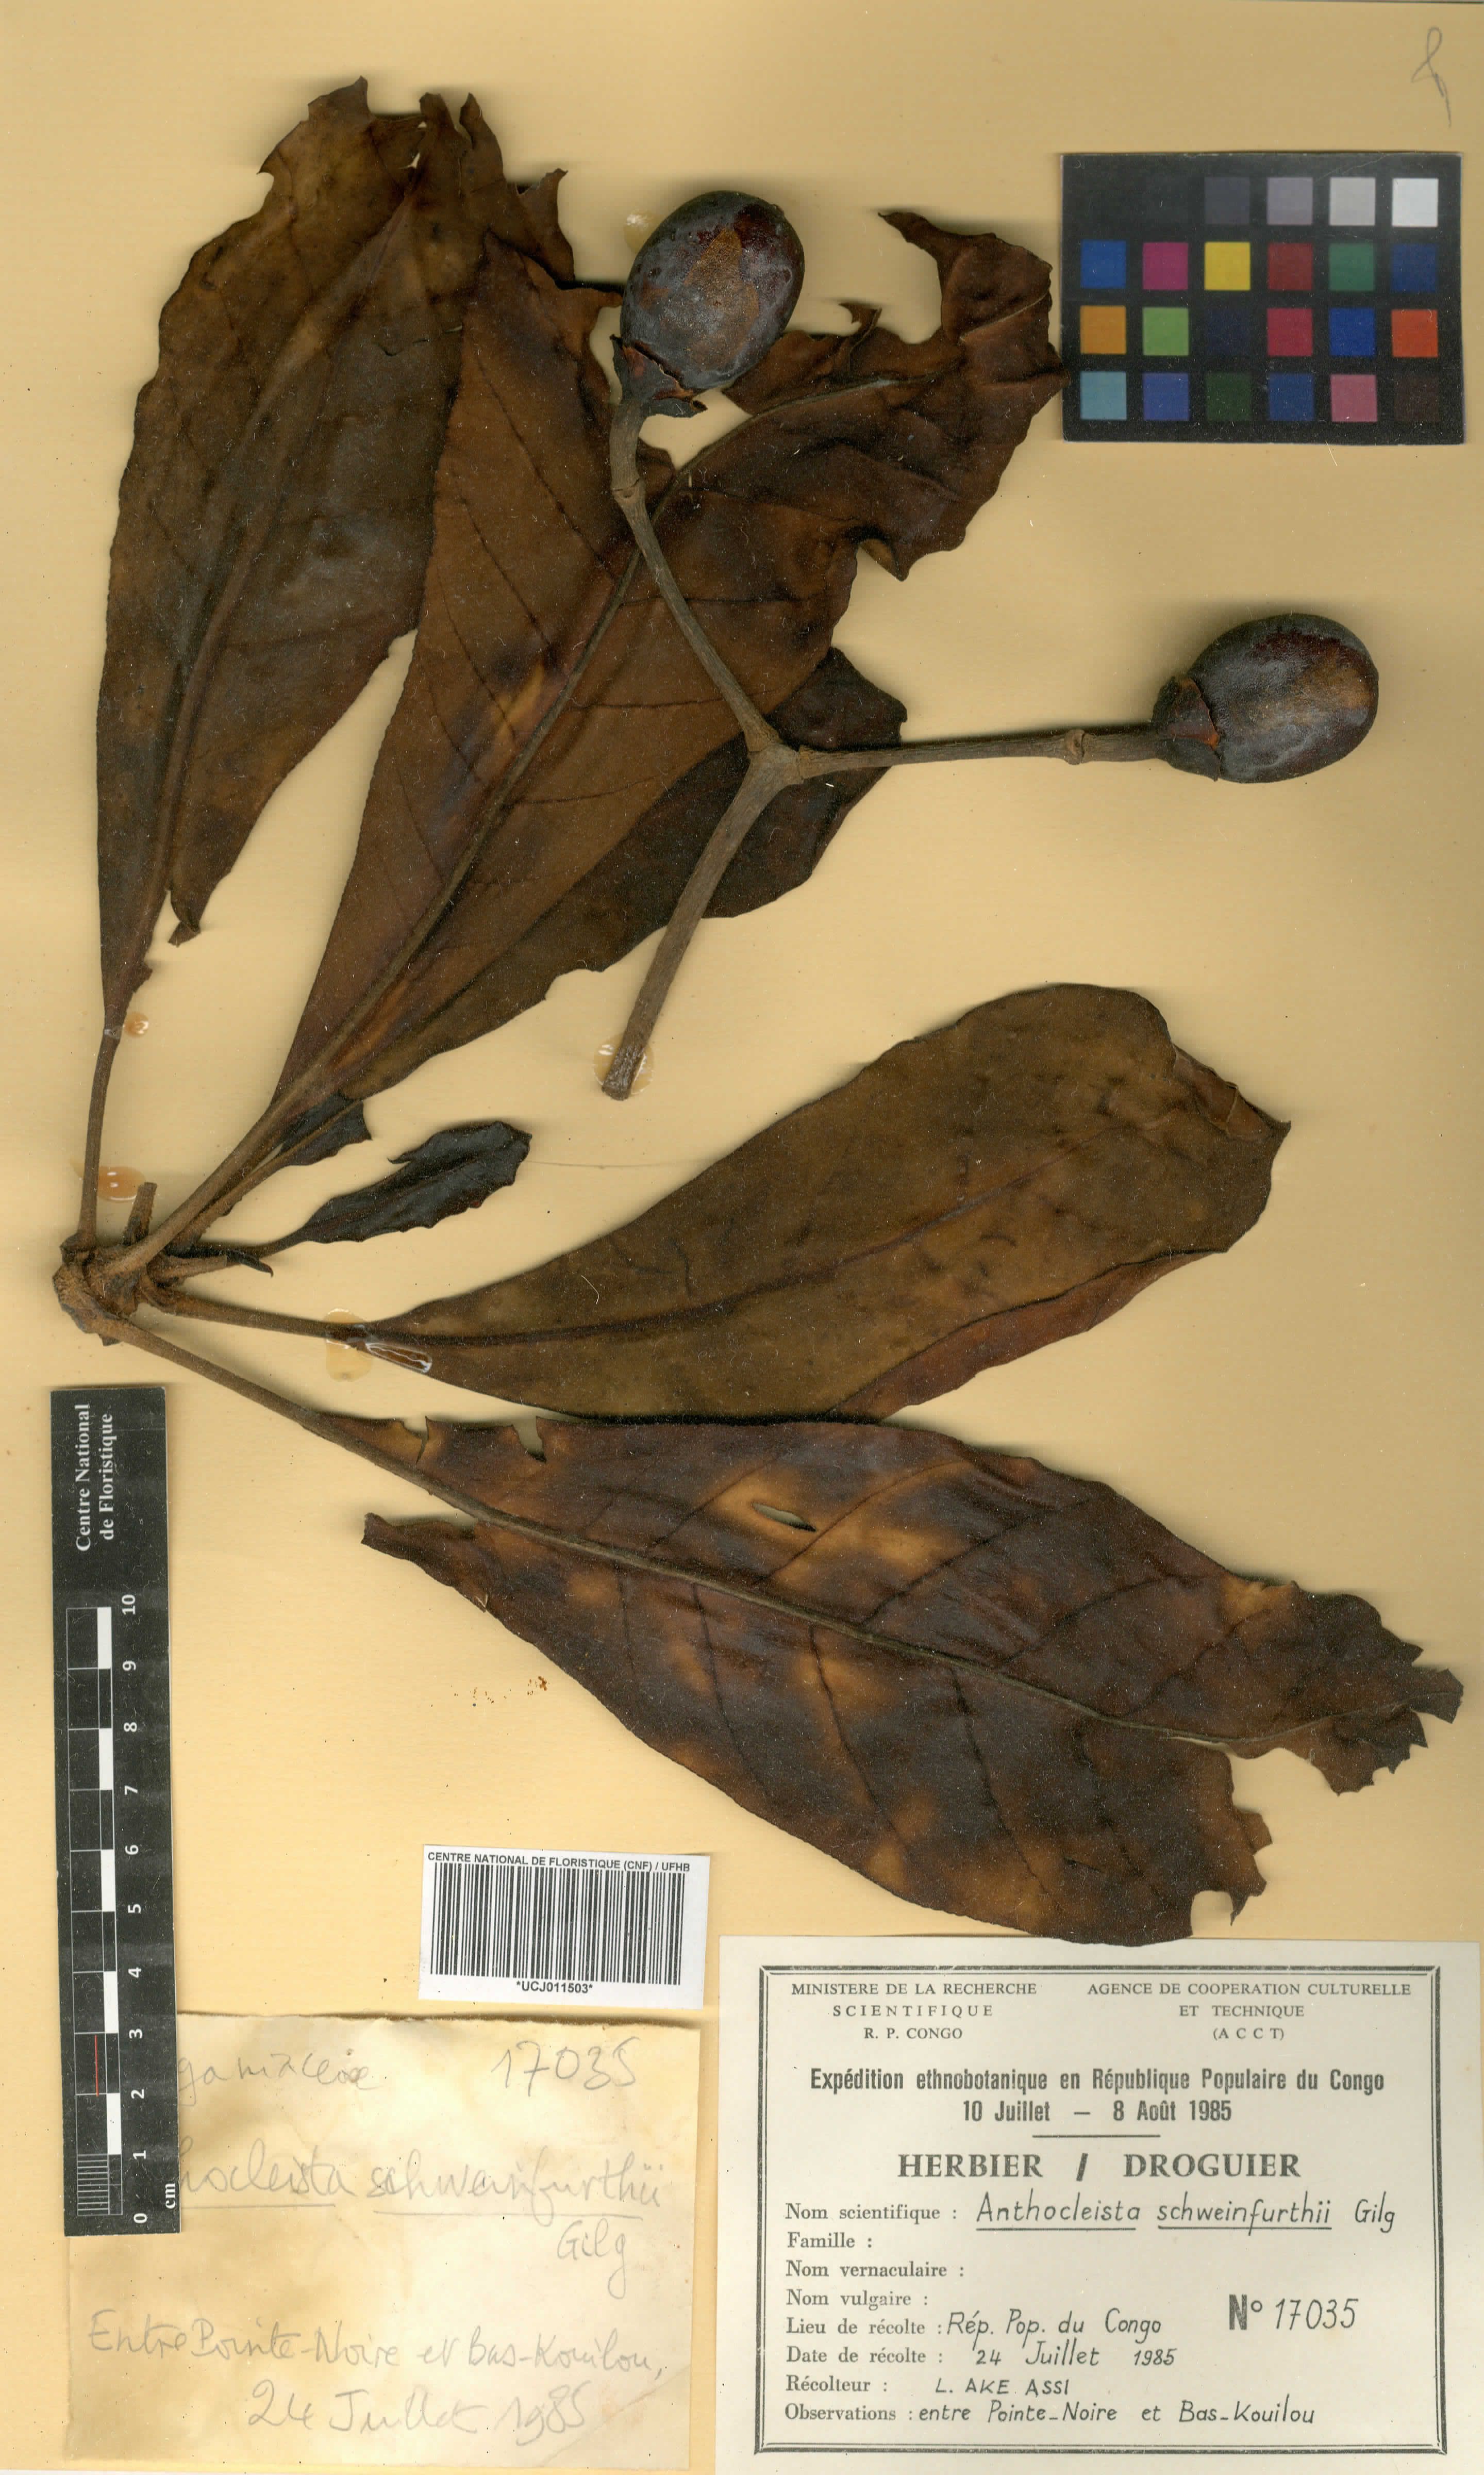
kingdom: Plantae
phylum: Tracheophyta
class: Magnoliopsida
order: Gentianales
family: Gentianaceae
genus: Anthocleista
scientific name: Anthocleista schweinfurthii
